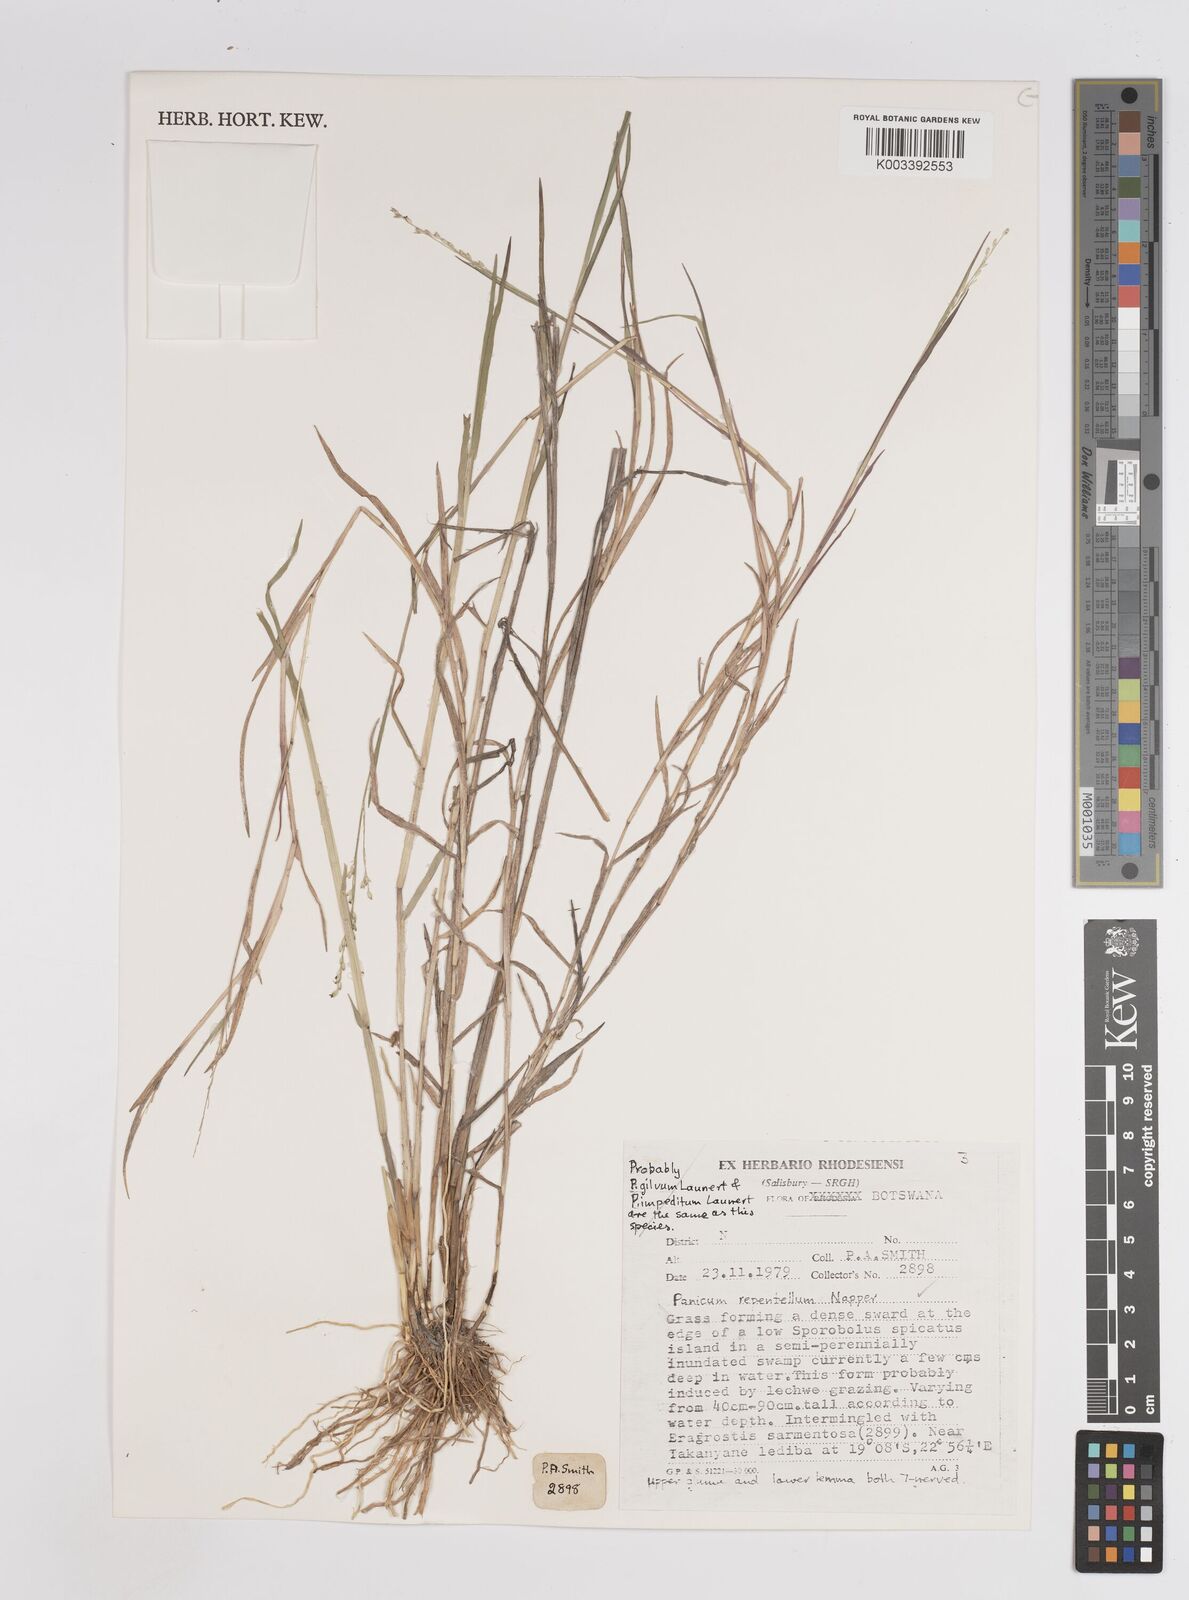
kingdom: Plantae
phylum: Tracheophyta
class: Liliopsida
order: Poales
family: Poaceae
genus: Panicum
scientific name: Panicum hygrocharis
